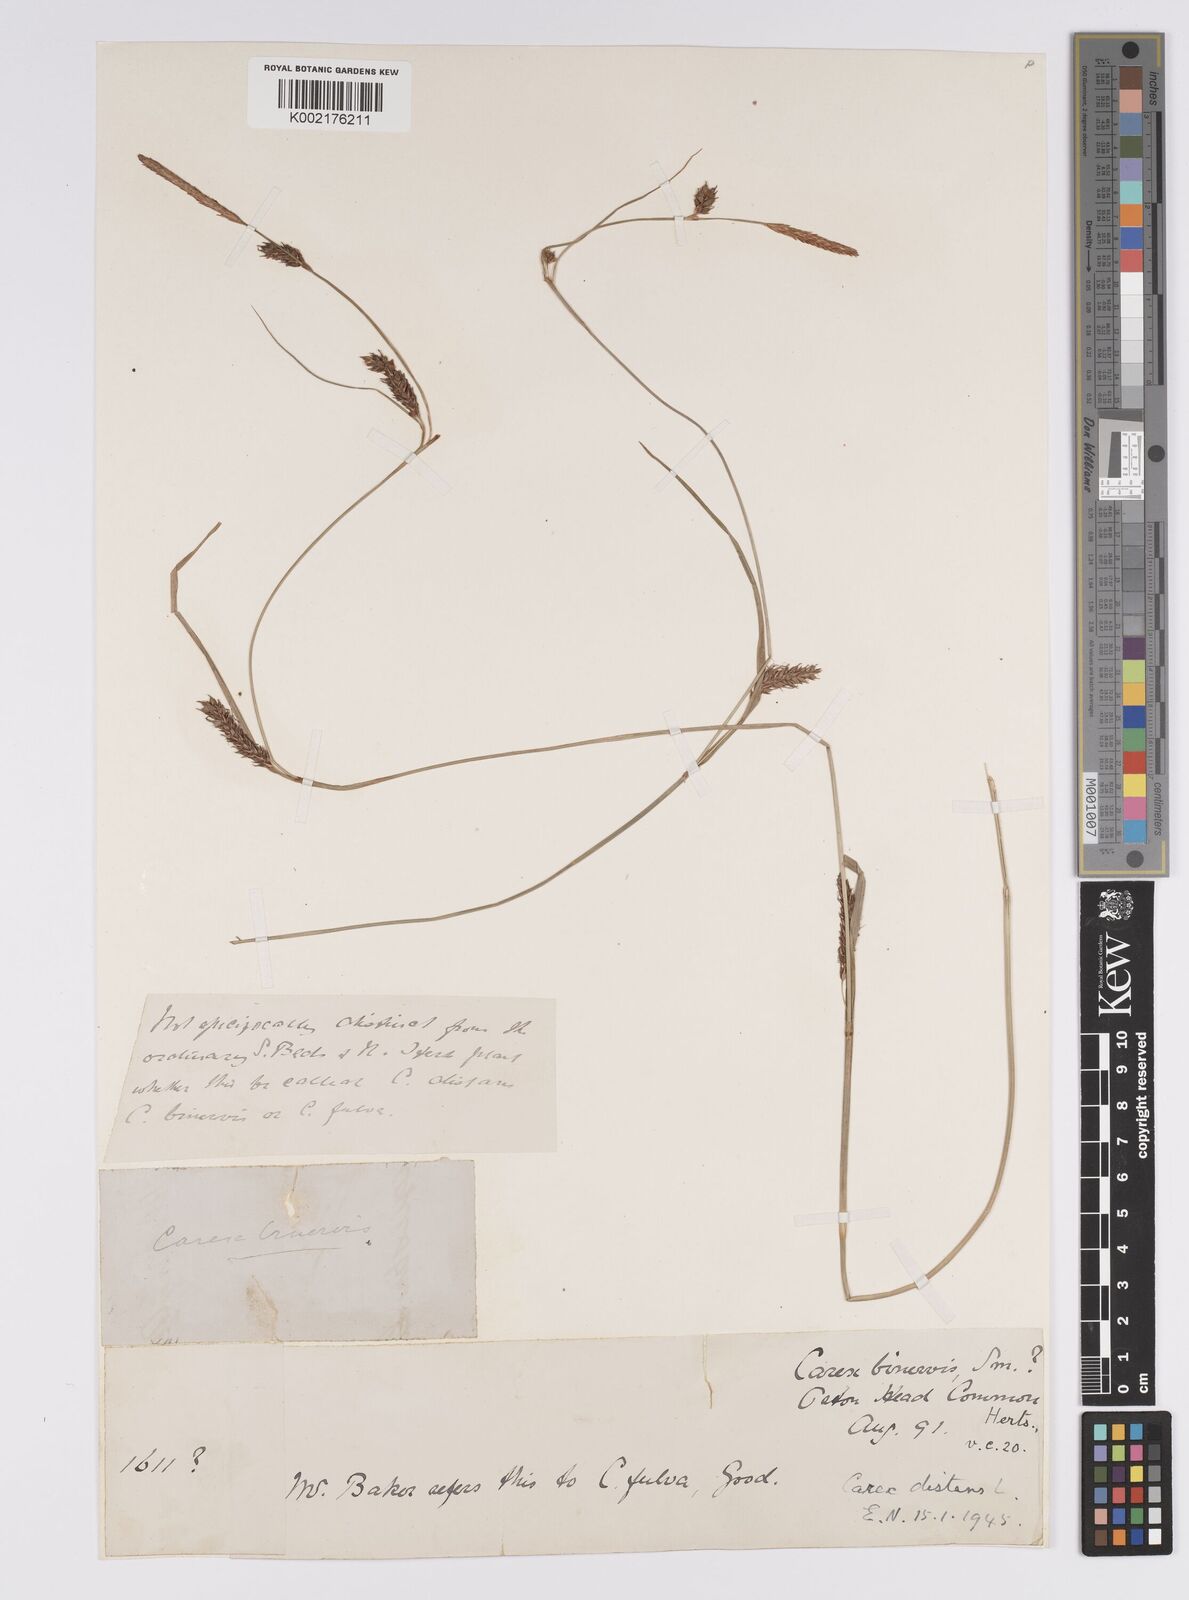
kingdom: Plantae
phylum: Tracheophyta
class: Liliopsida
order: Poales
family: Cyperaceae
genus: Carex
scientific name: Carex distans
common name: Distant sedge
